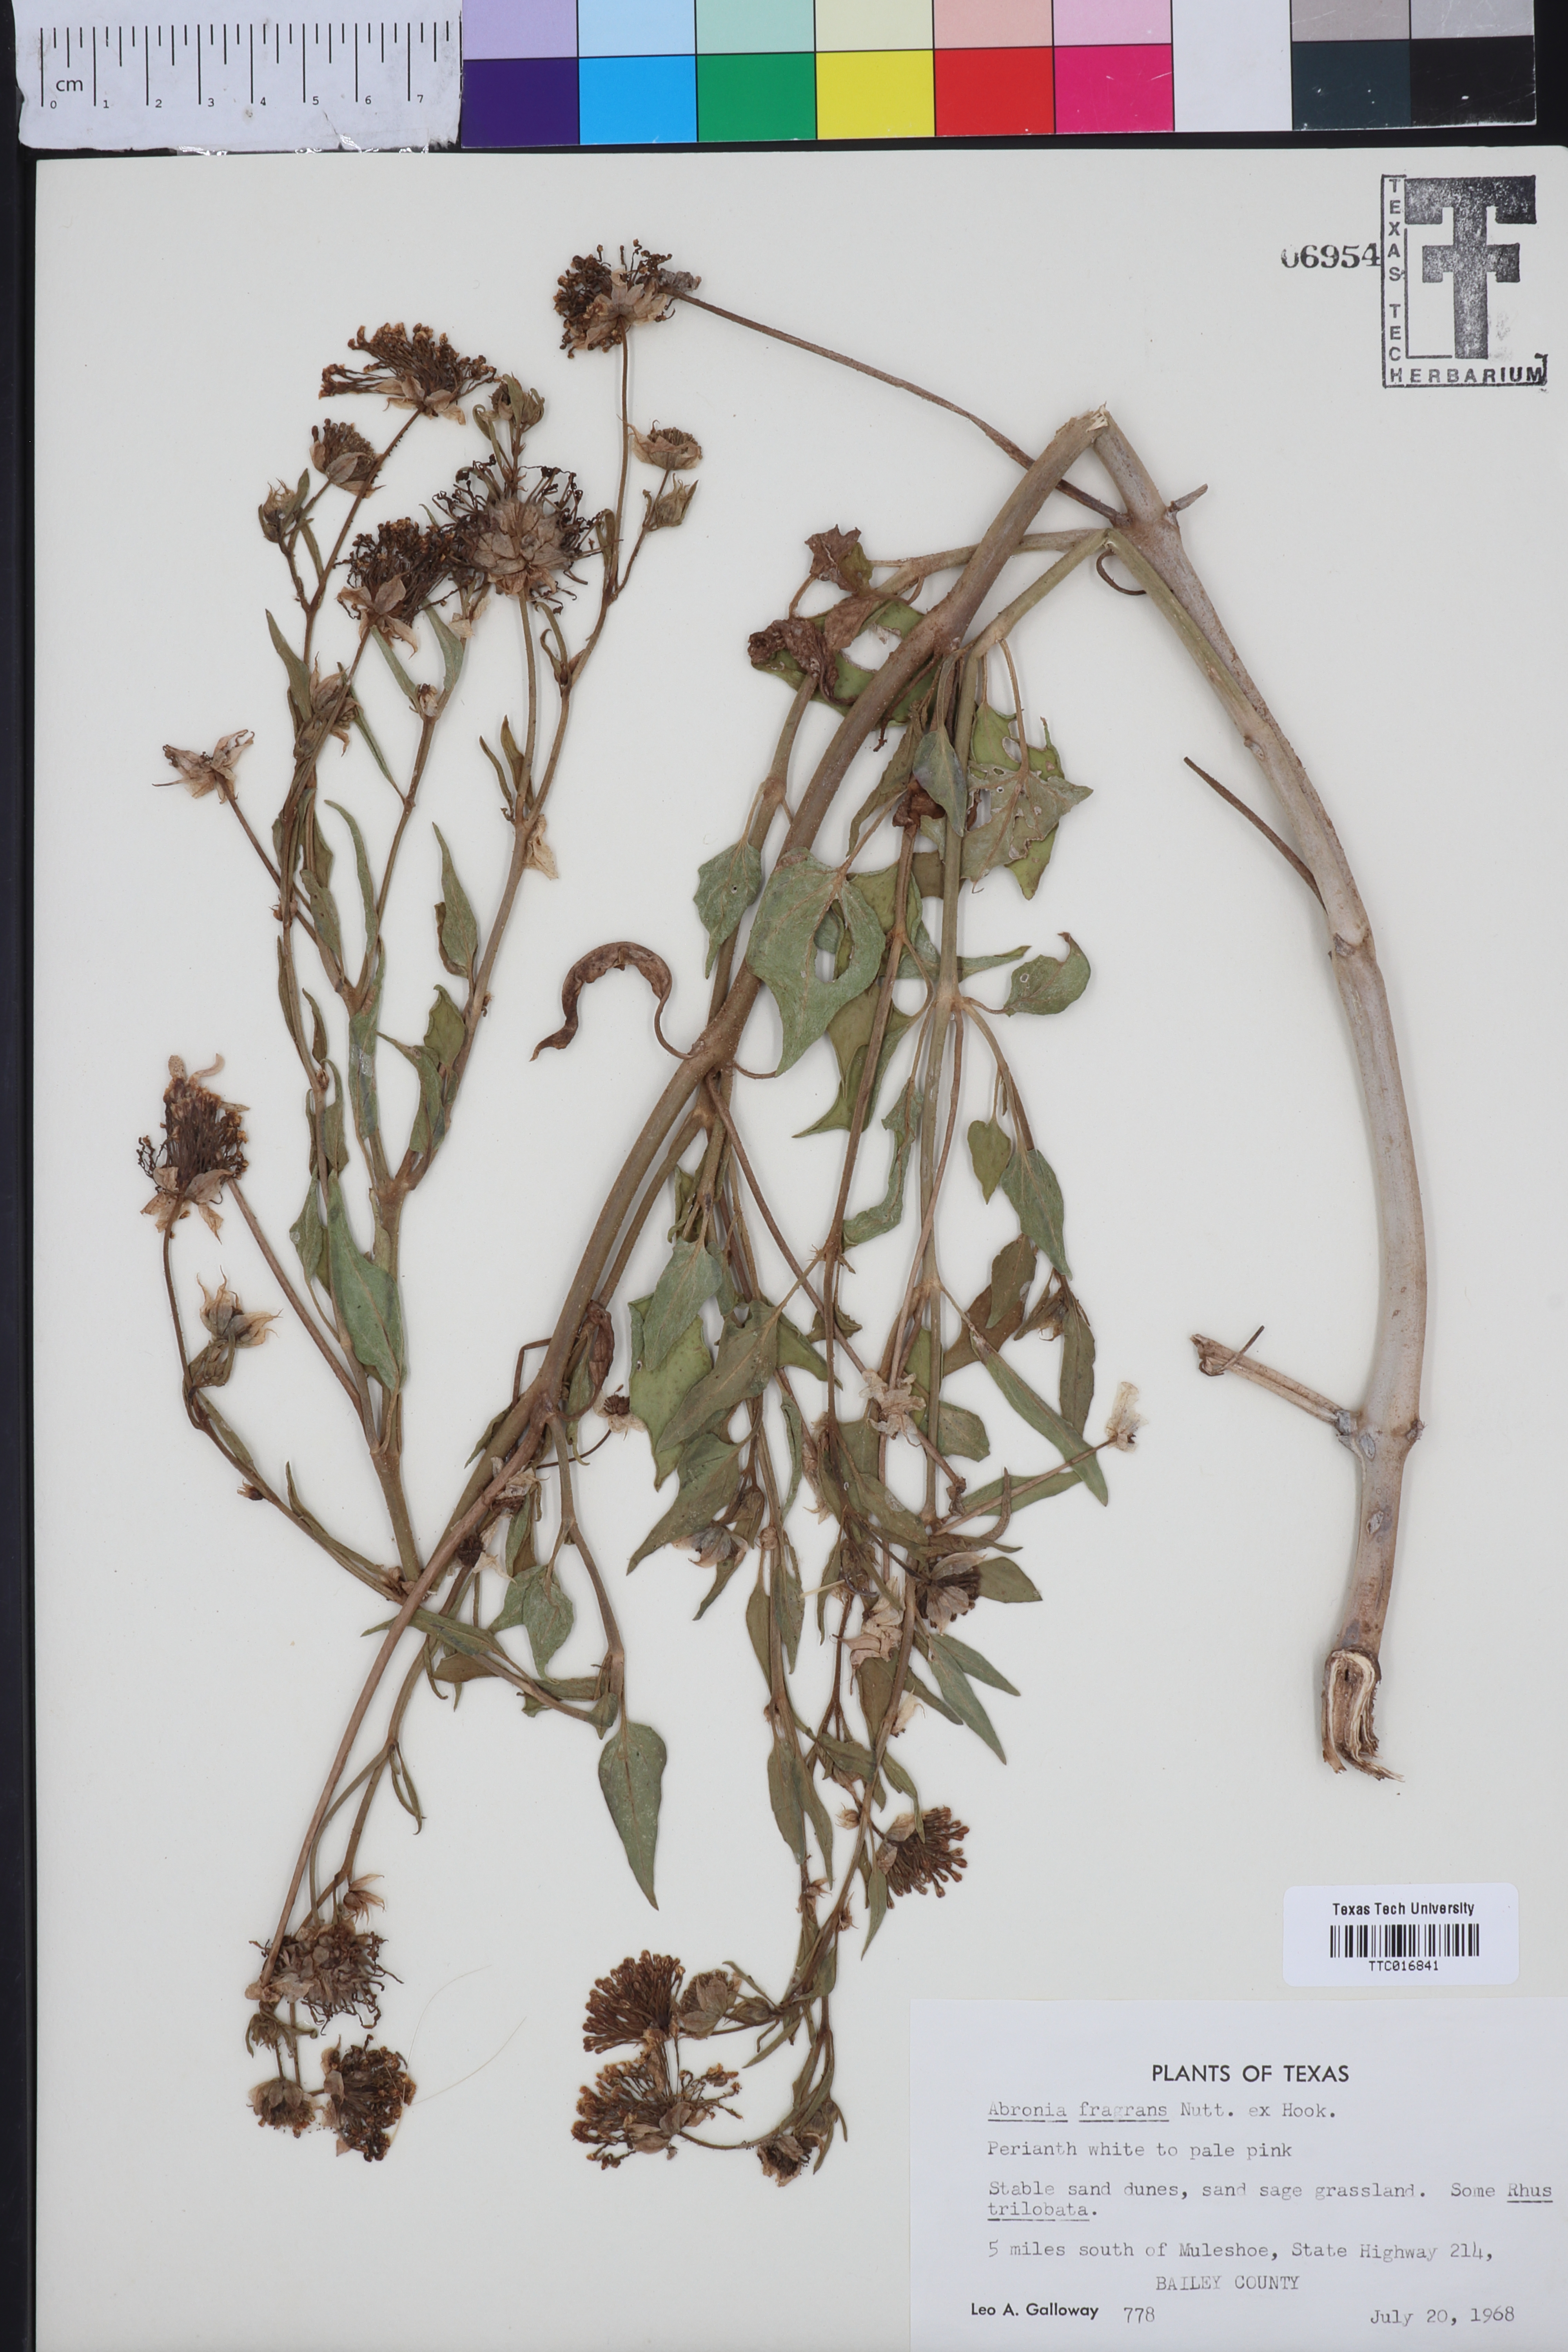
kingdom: Plantae
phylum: Tracheophyta
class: Magnoliopsida
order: Caryophyllales
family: Nyctaginaceae
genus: Abronia
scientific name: Abronia fragrans
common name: Fragrant sand-verbena
